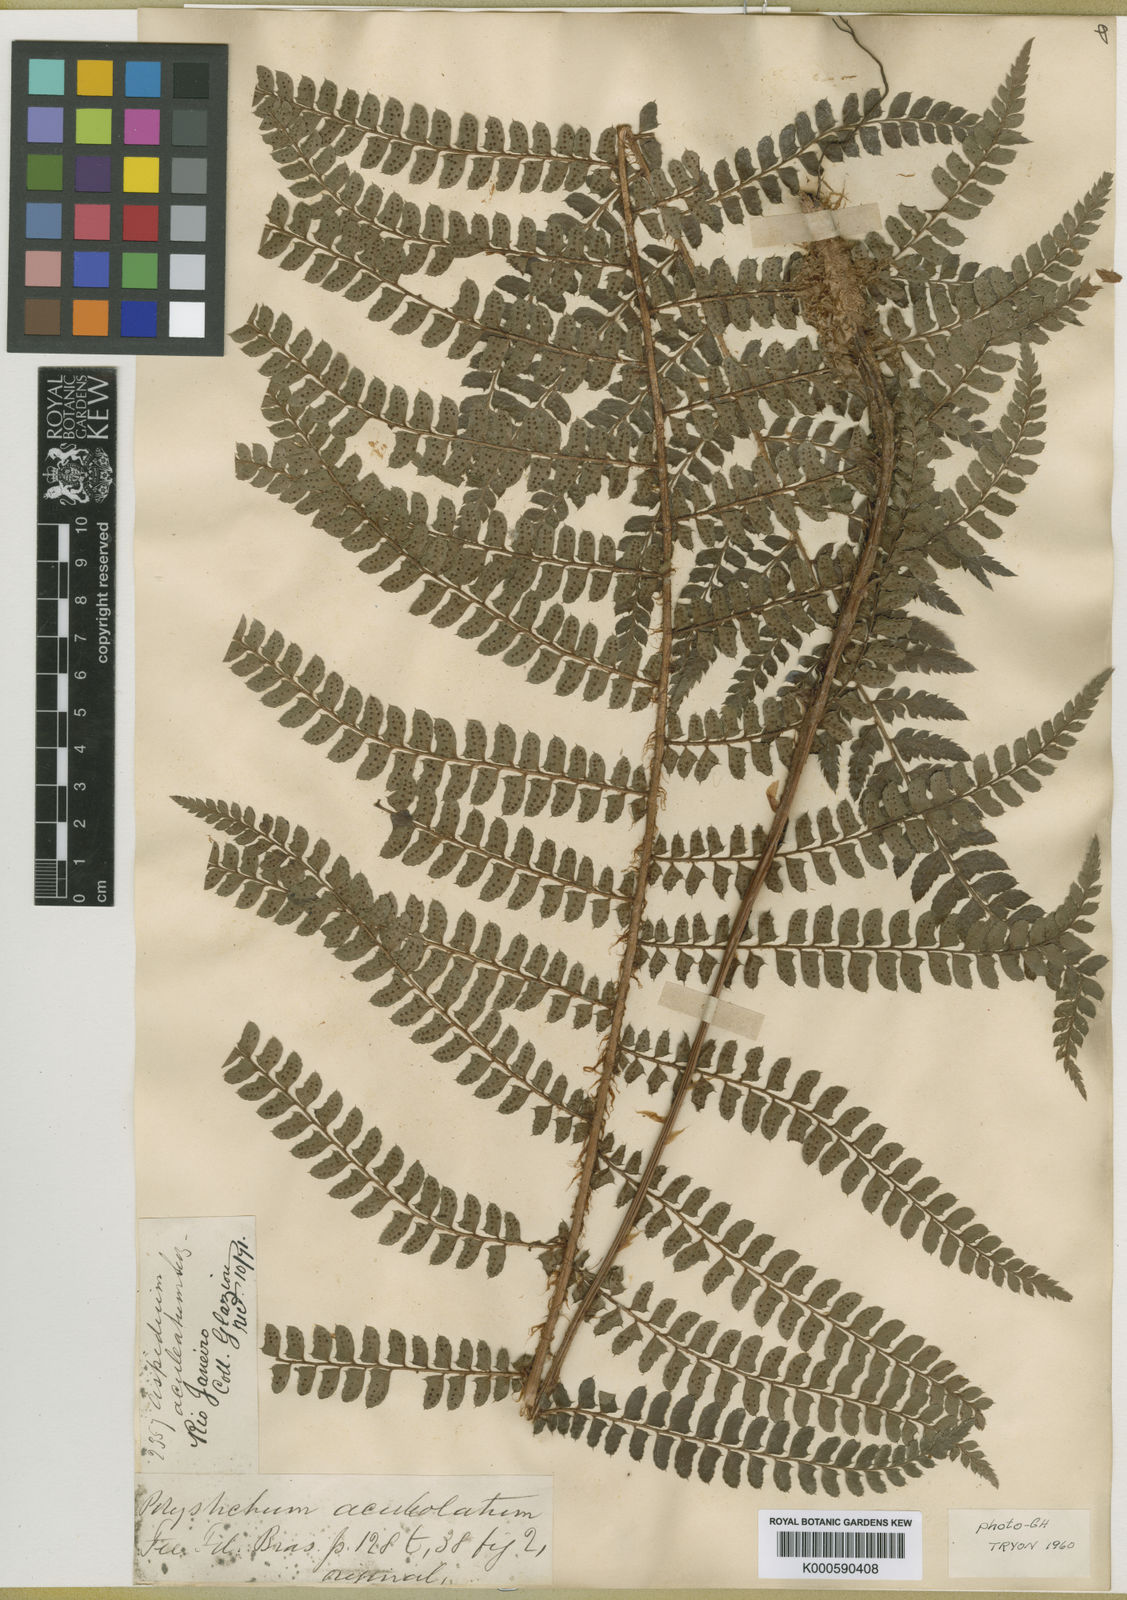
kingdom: Plantae
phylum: Tracheophyta
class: Polypodiopsida
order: Polypodiales
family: Dryopteridaceae
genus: Polystichum
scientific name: Polystichum
